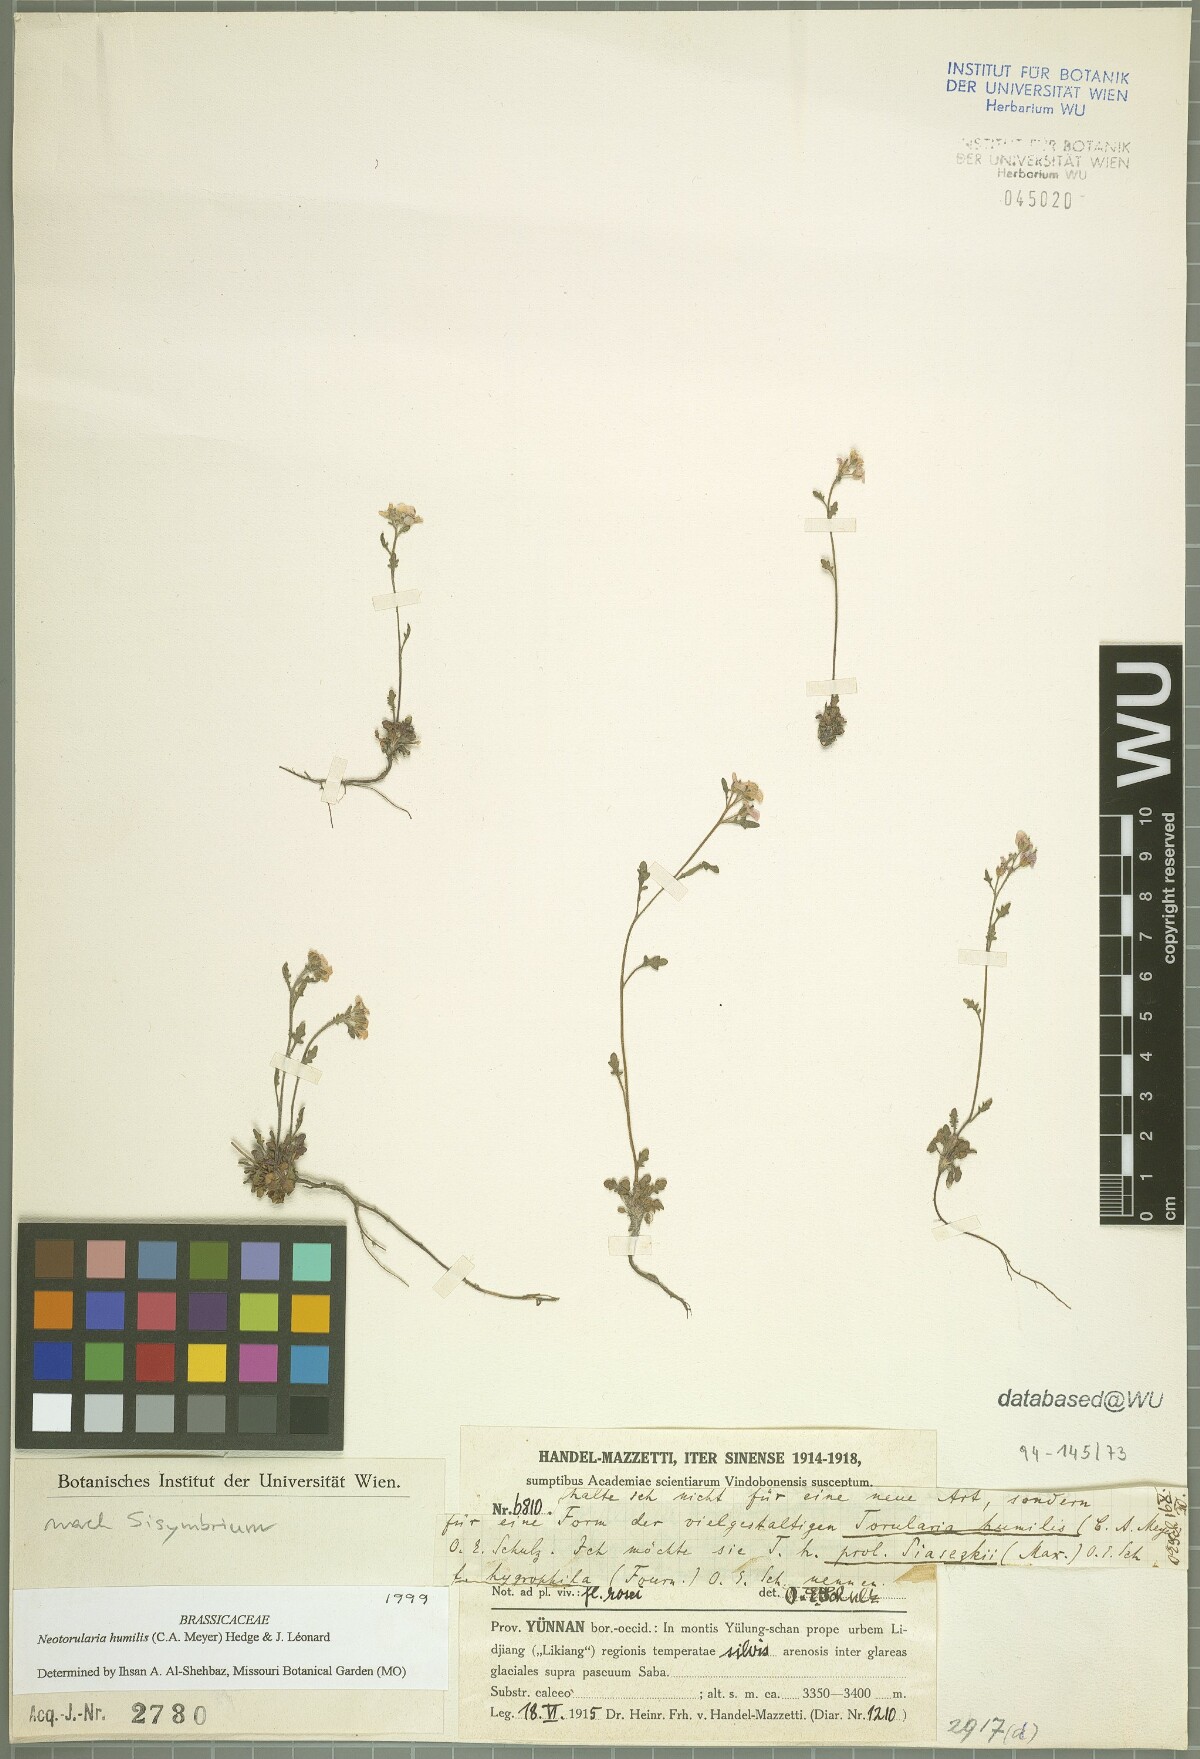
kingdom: Plantae
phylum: Tracheophyta
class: Magnoliopsida
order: Brassicales
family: Brassicaceae
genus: Braya
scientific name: Braya humilis
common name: Alpine northern rockcress
